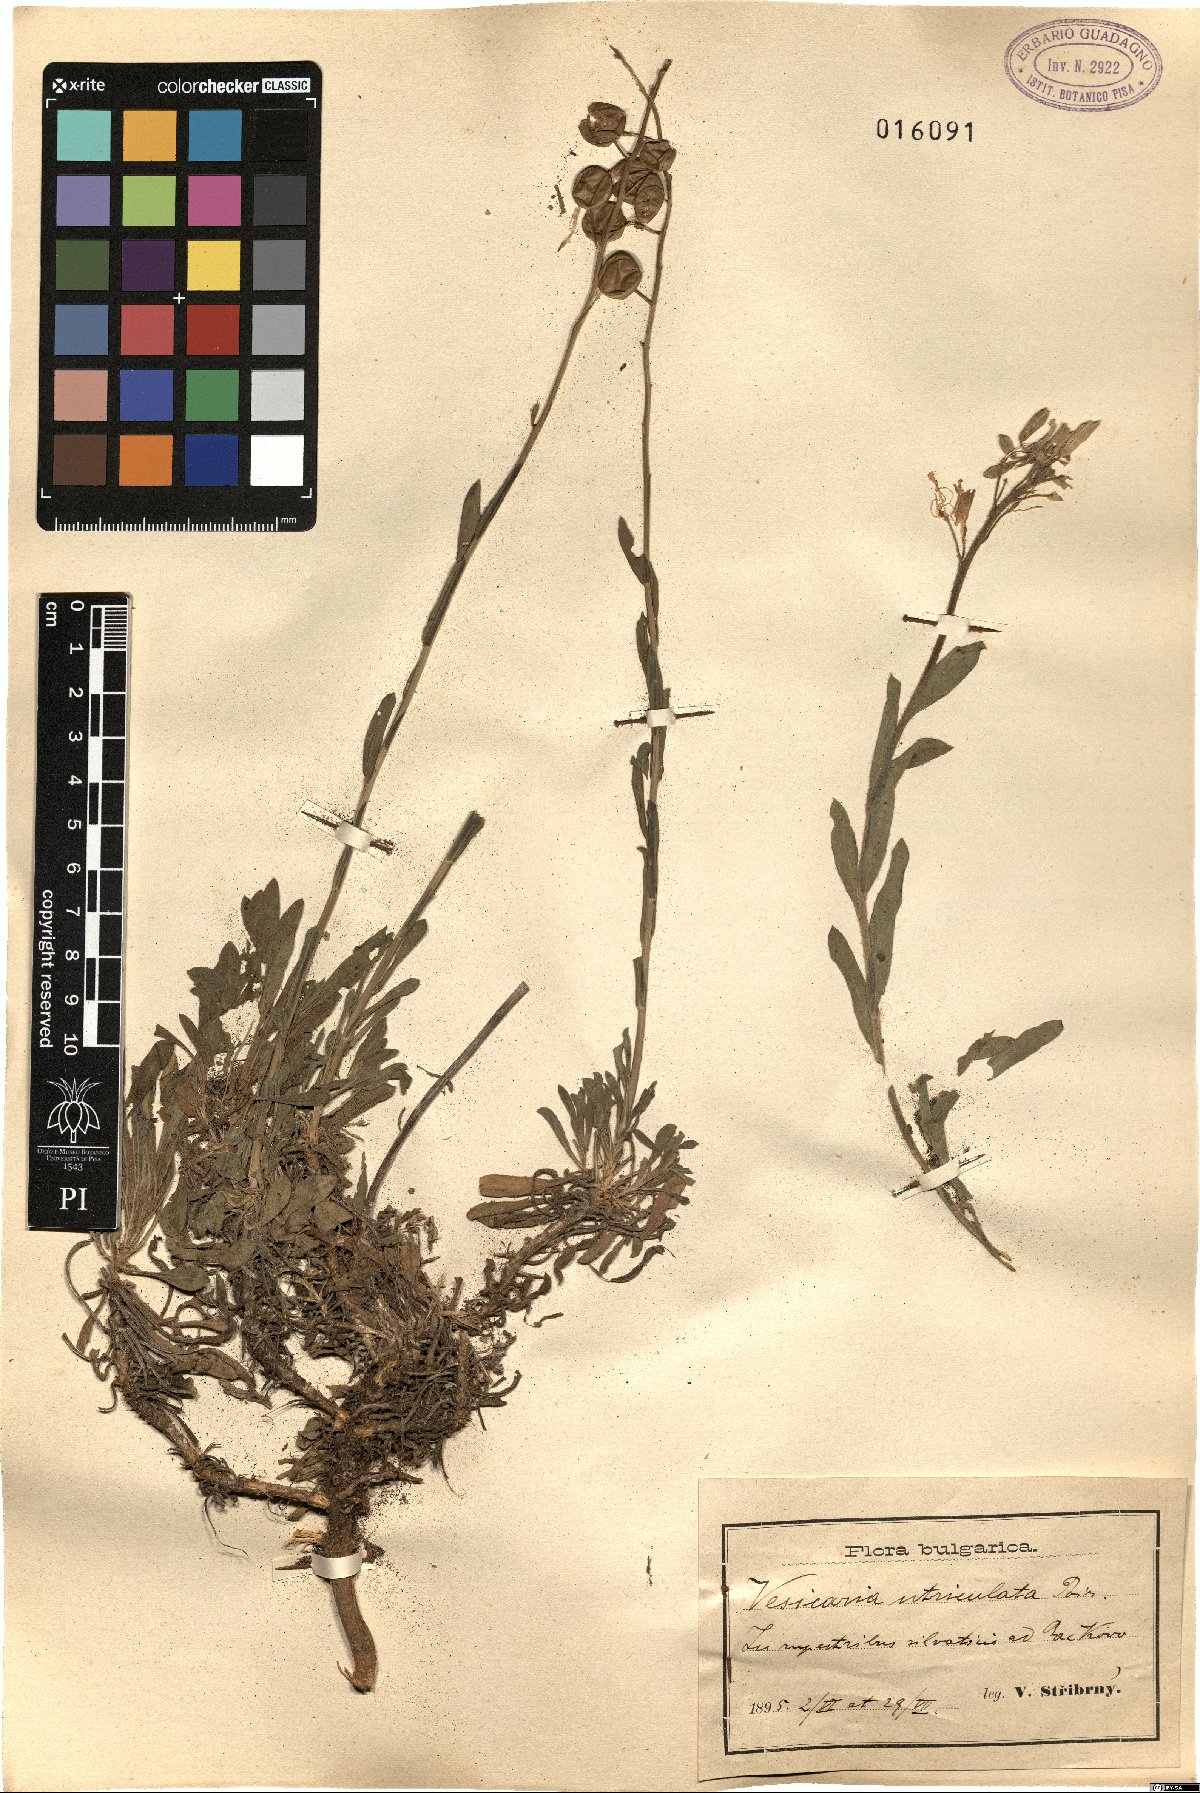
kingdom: Plantae
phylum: Tracheophyta
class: Magnoliopsida
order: Brassicales
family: Brassicaceae
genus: Alyssoides
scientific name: Alyssoides utriculata
